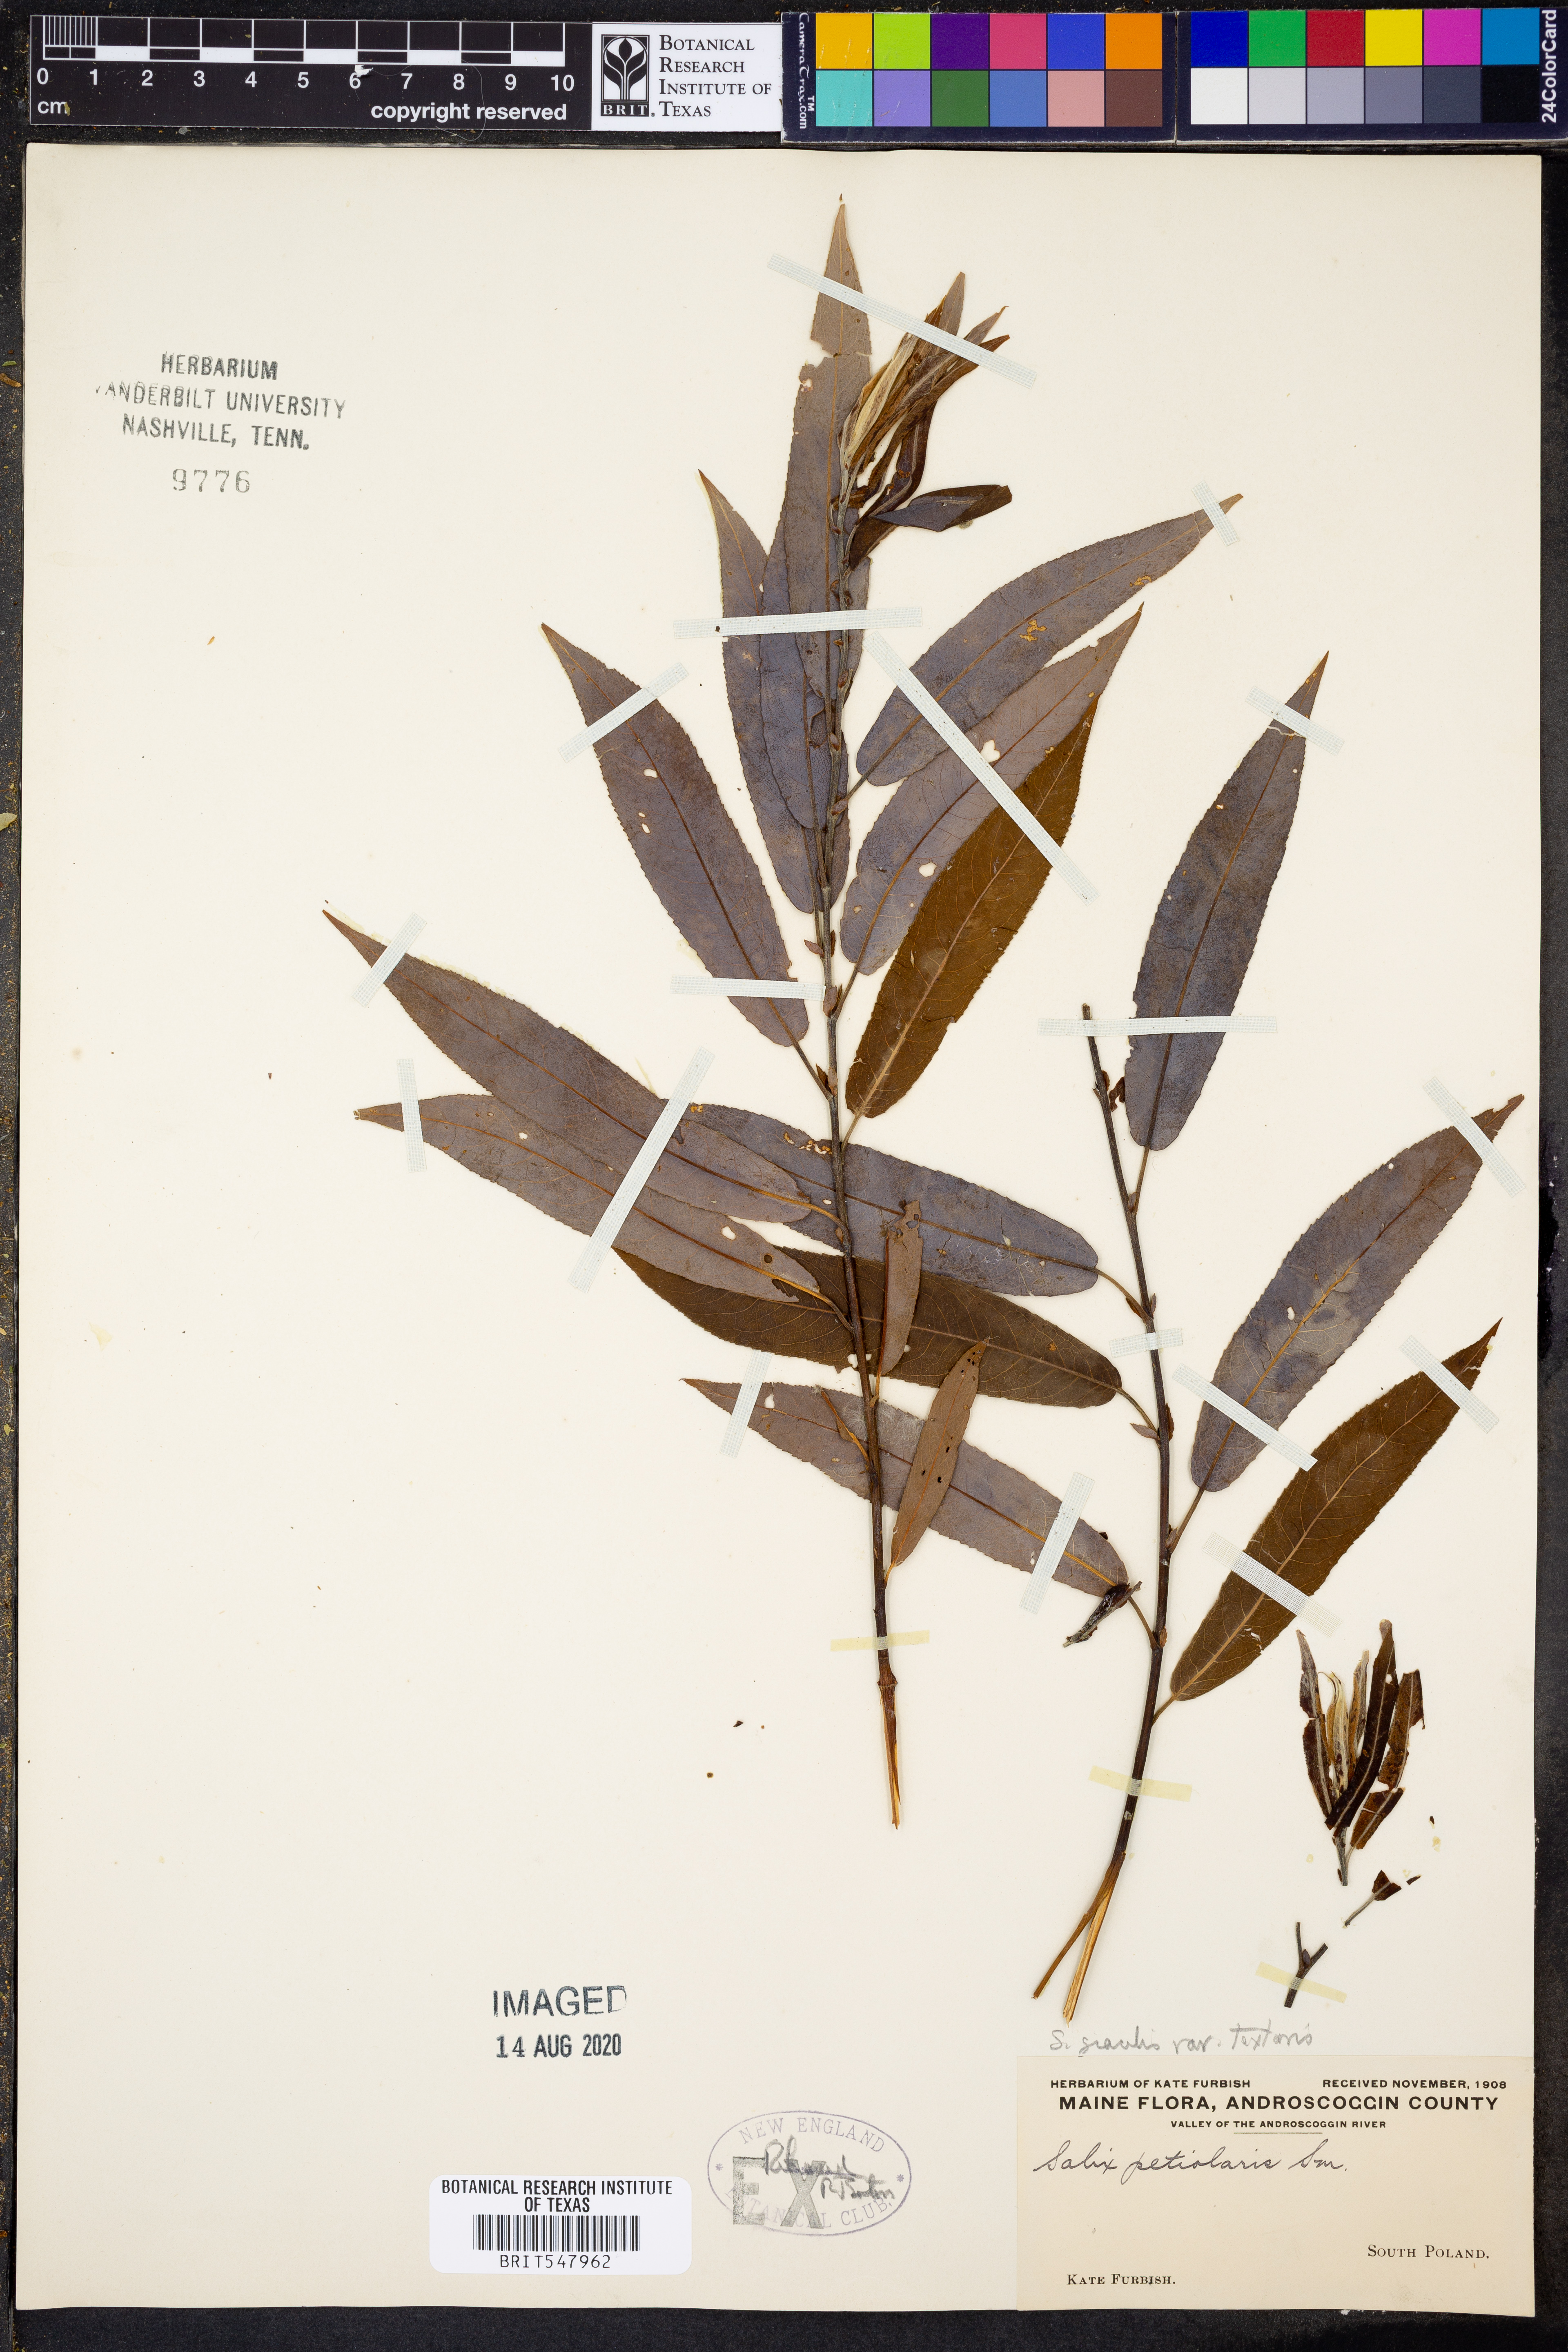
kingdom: Plantae
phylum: Tracheophyta
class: Magnoliopsida
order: Malpighiales
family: Salicaceae
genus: Salix
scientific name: Salix petiolaris
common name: Slender willow
